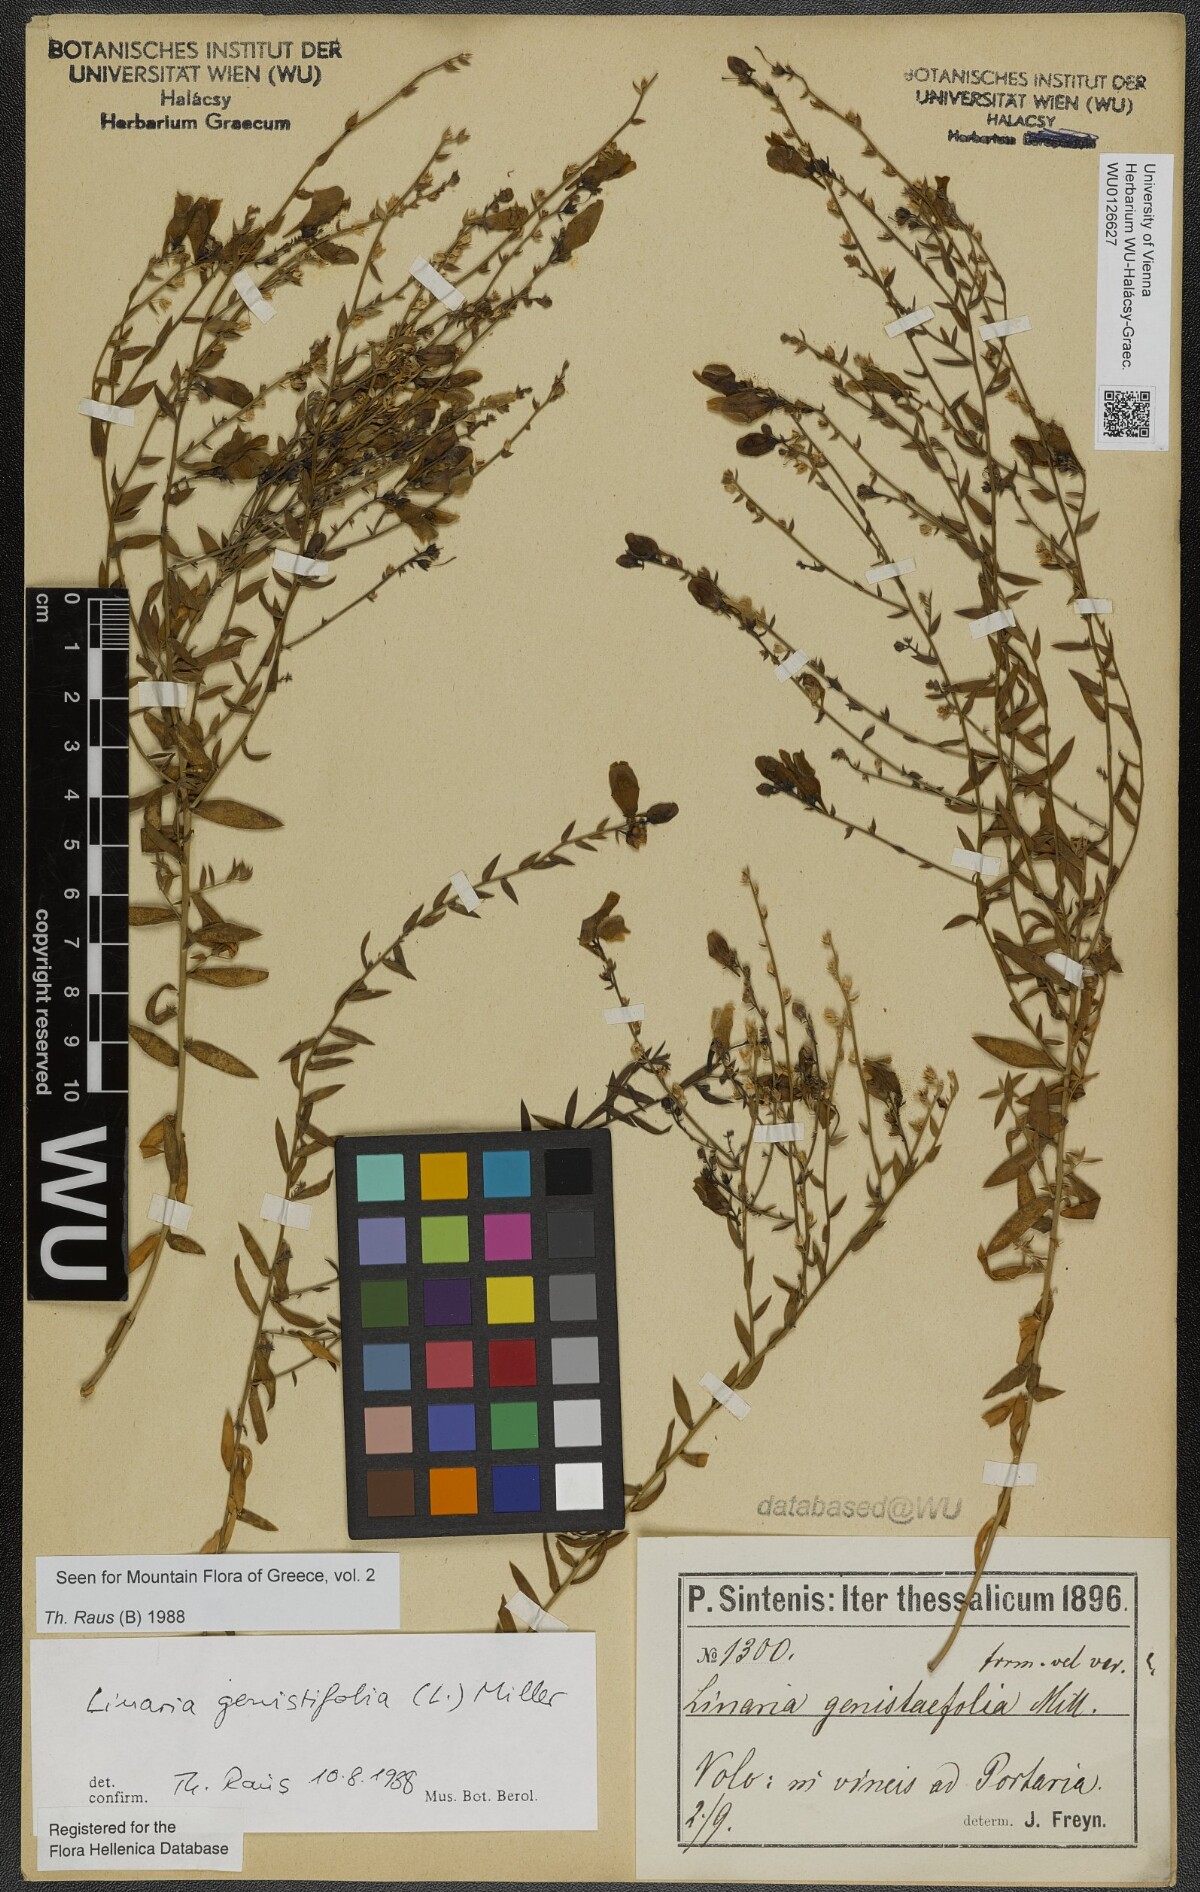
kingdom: Plantae
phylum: Tracheophyta
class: Magnoliopsida
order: Lamiales
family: Plantaginaceae
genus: Linaria
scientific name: Linaria genistifolia
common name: Broomleaf toadflax
